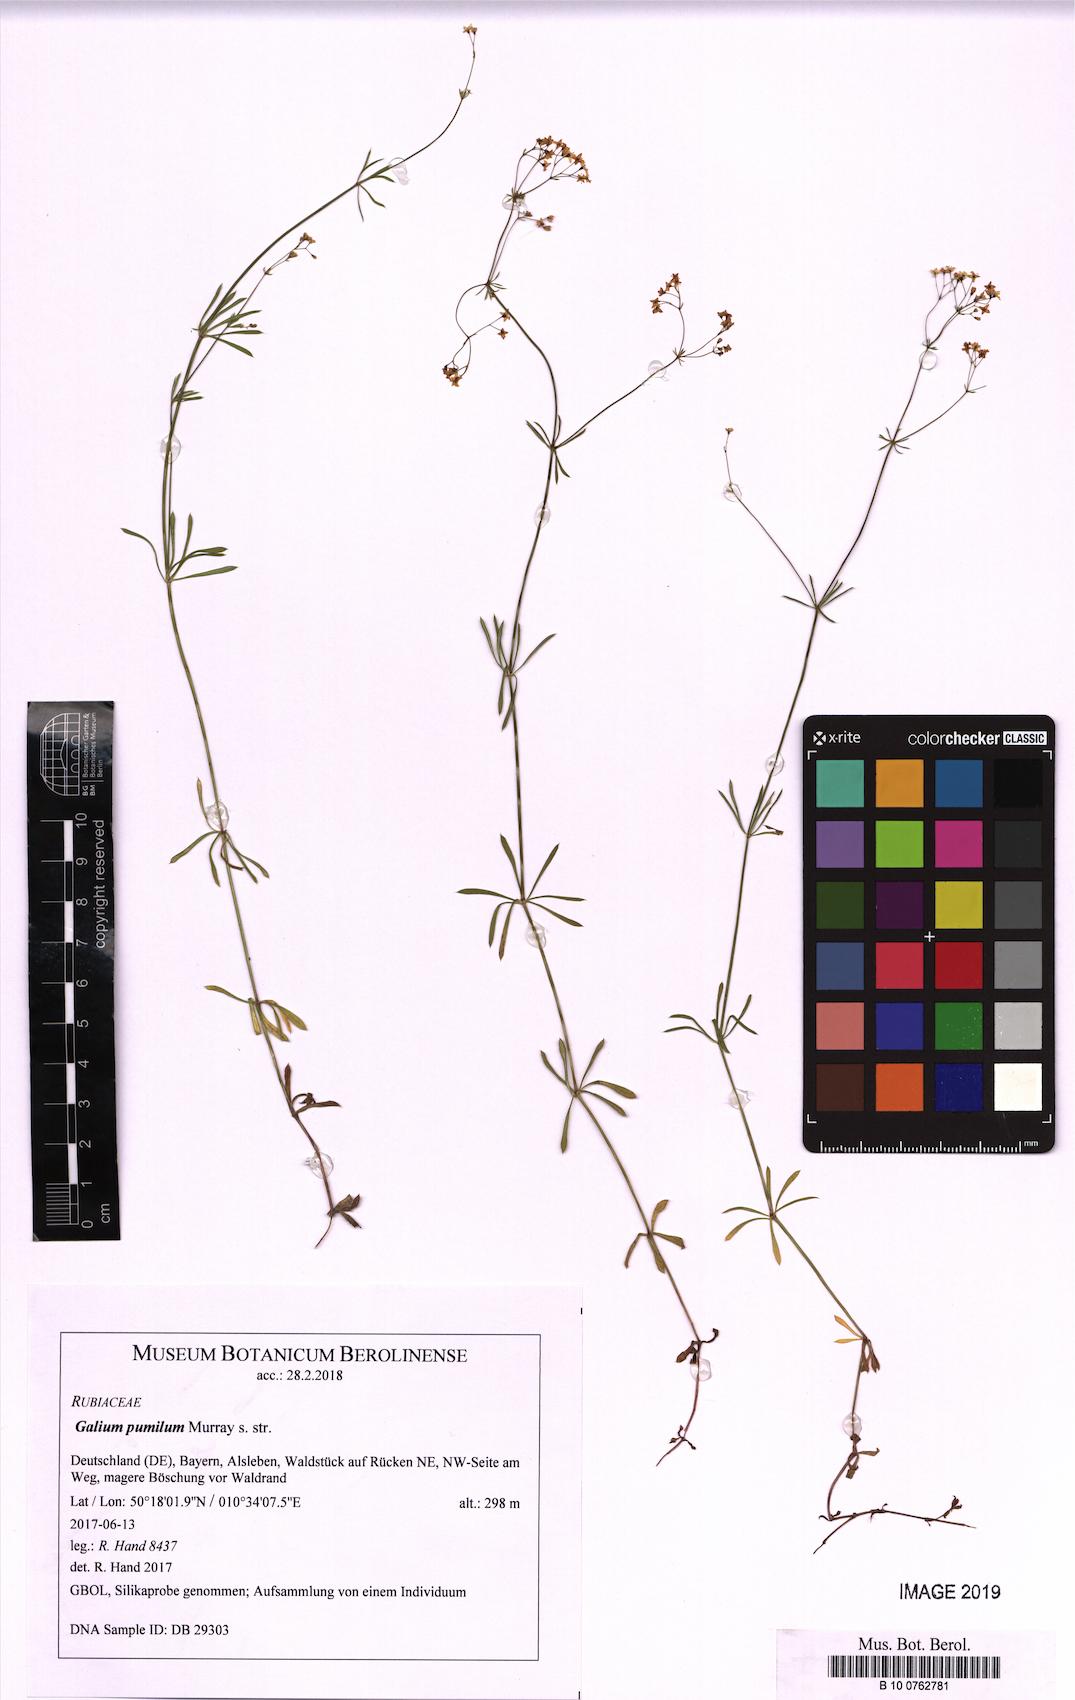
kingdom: Plantae
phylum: Tracheophyta
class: Magnoliopsida
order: Gentianales
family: Rubiaceae
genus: Galium
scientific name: Galium pumilum
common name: Slender bedstraw
